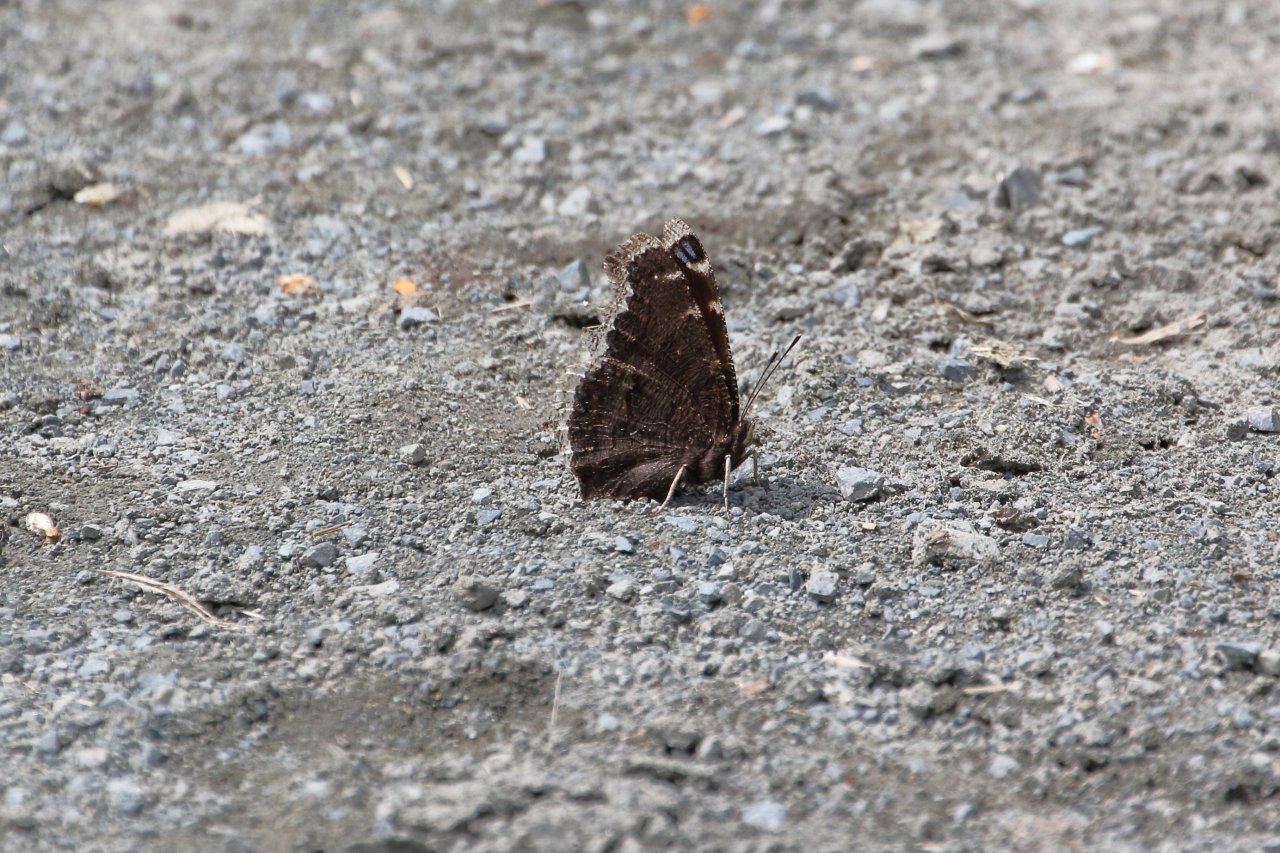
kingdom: Animalia
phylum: Arthropoda
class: Insecta
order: Lepidoptera
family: Nymphalidae
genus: Nymphalis
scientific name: Nymphalis antiopa
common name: Mourning Cloak
